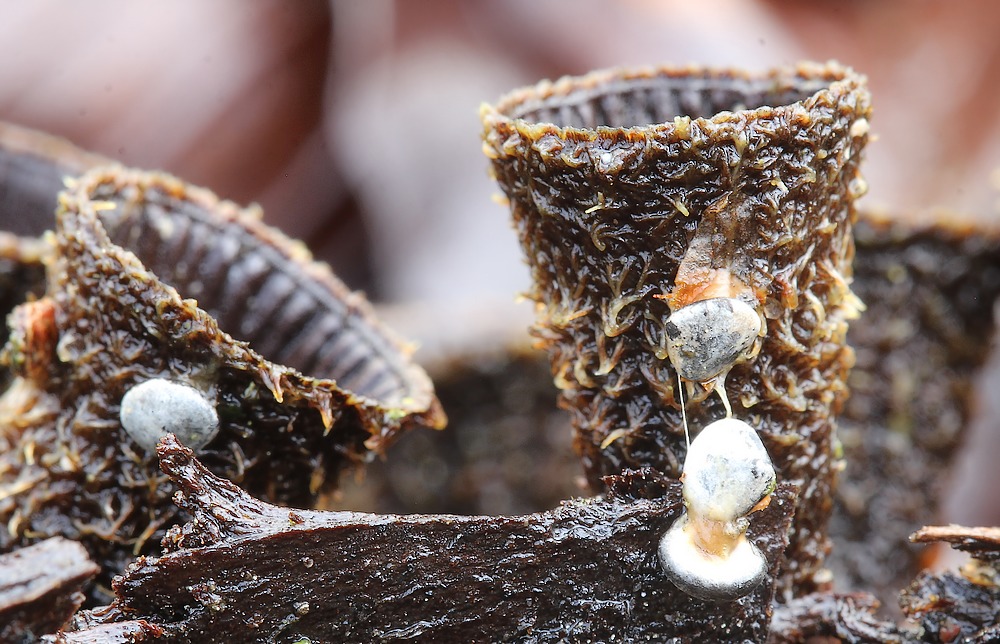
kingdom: Fungi
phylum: Basidiomycota
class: Agaricomycetes
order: Agaricales
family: Agaricaceae
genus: Cyathus
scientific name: Cyathus striatus
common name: stribet redesvamp
